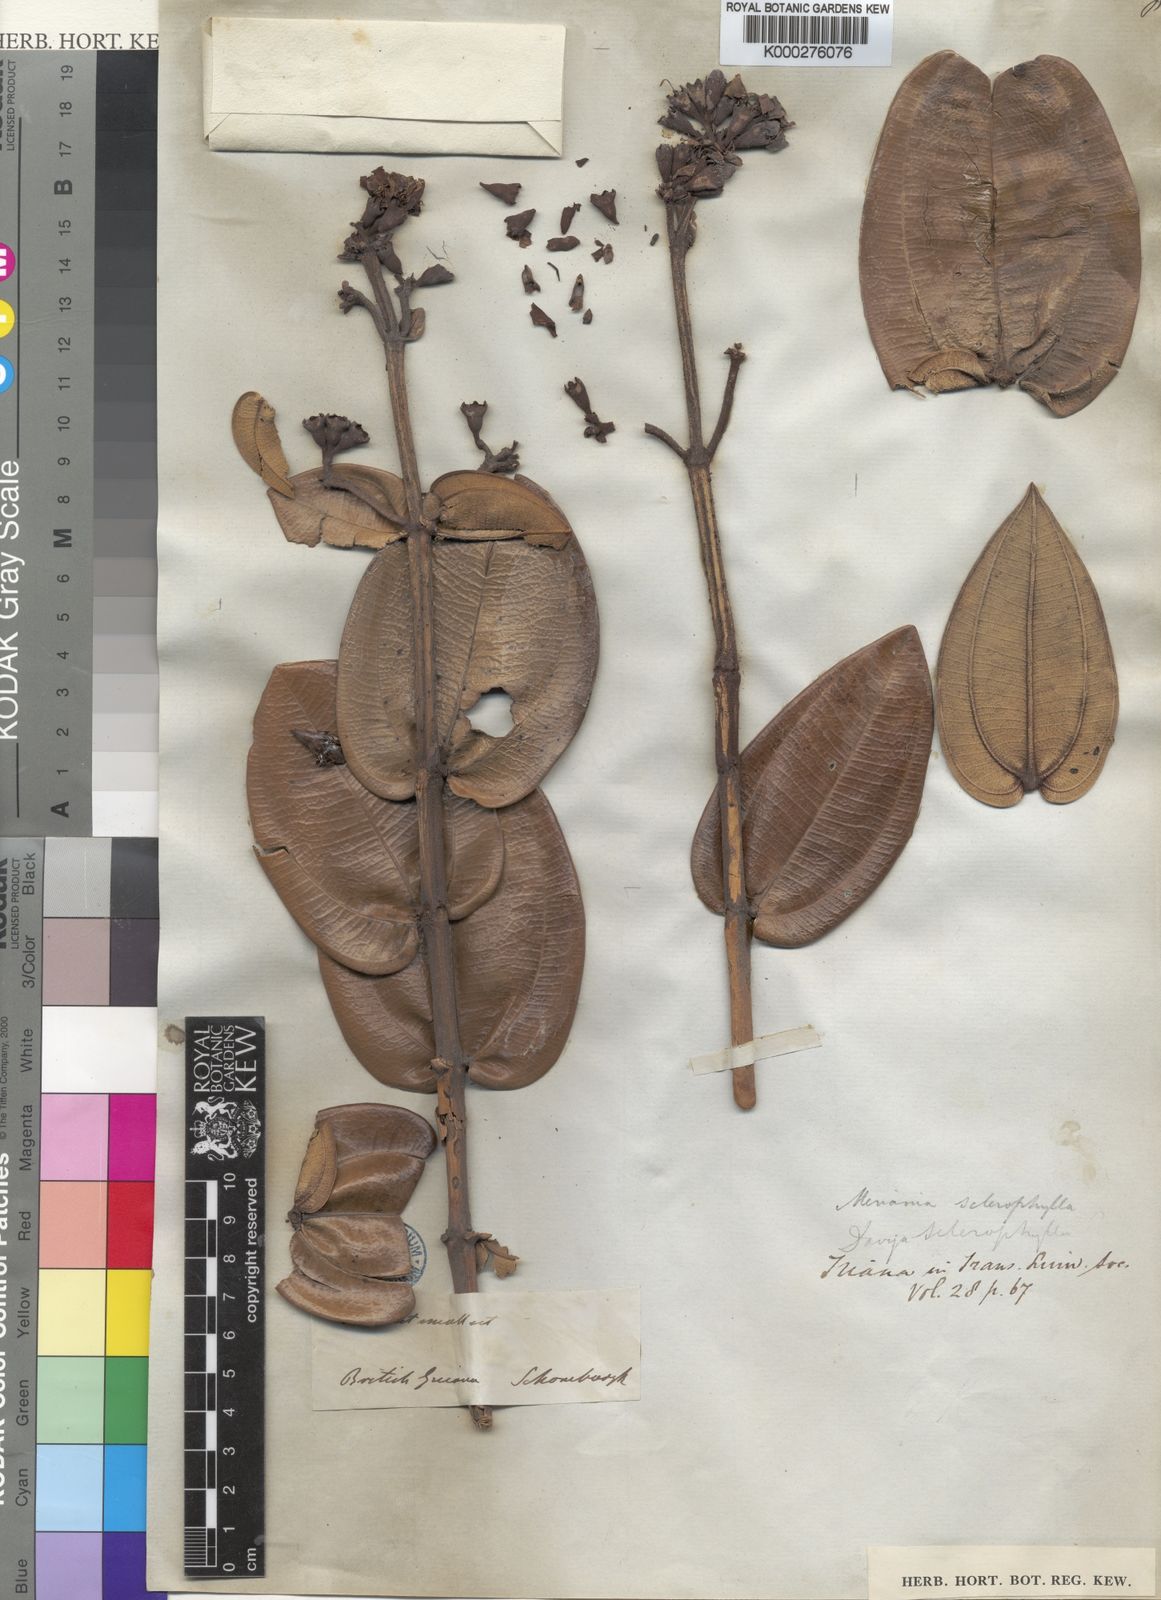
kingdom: Plantae
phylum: Tracheophyta
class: Magnoliopsida
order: Myrtales
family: Melastomataceae
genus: Meriania
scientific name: Meriania sclerophylla
